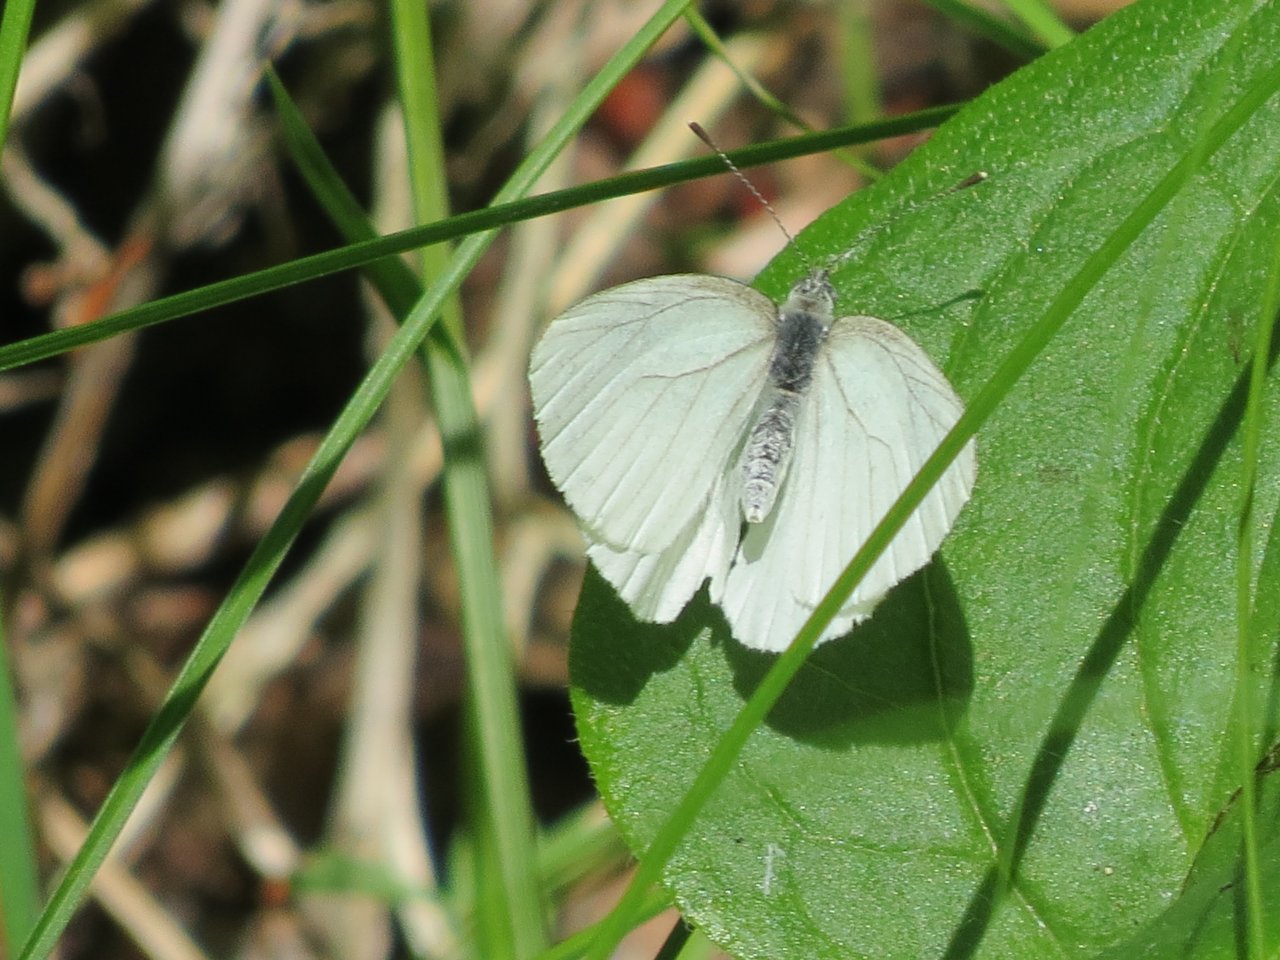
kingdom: Animalia
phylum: Arthropoda
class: Insecta
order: Lepidoptera
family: Pieridae
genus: Pieris
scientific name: Pieris oleracea
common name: Mustard White
